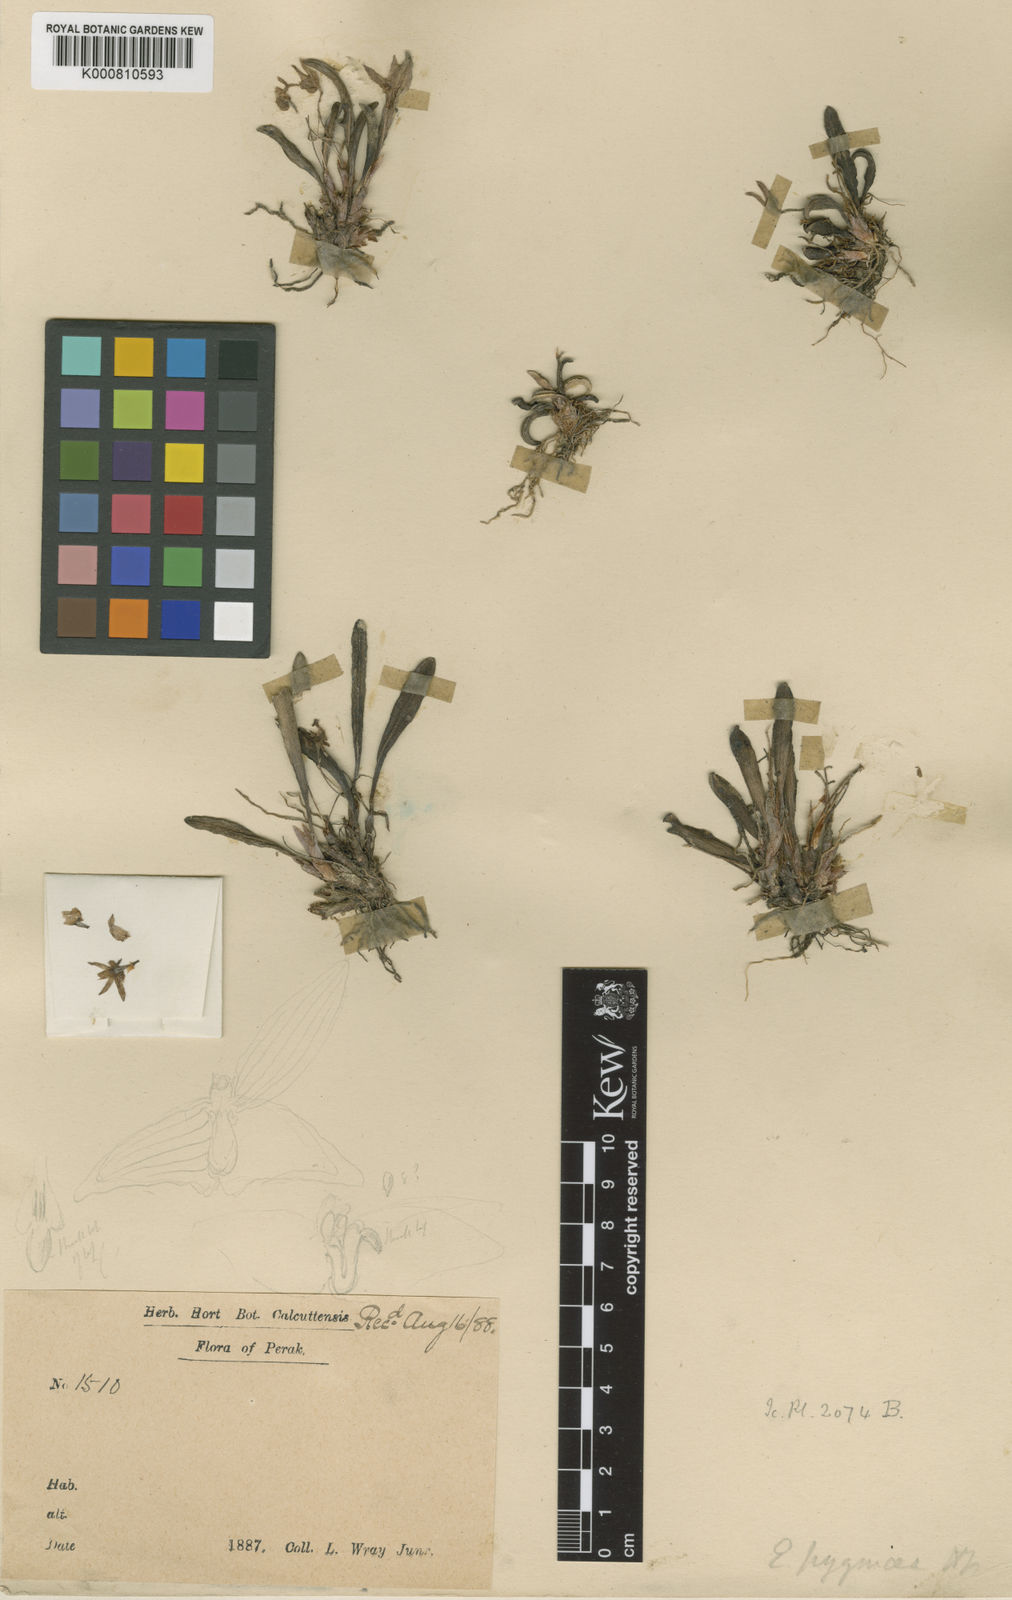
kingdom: Plantae
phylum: Tracheophyta
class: Liliopsida
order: Asparagales
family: Orchidaceae
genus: Ceratostylis
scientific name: Ceratostylis
